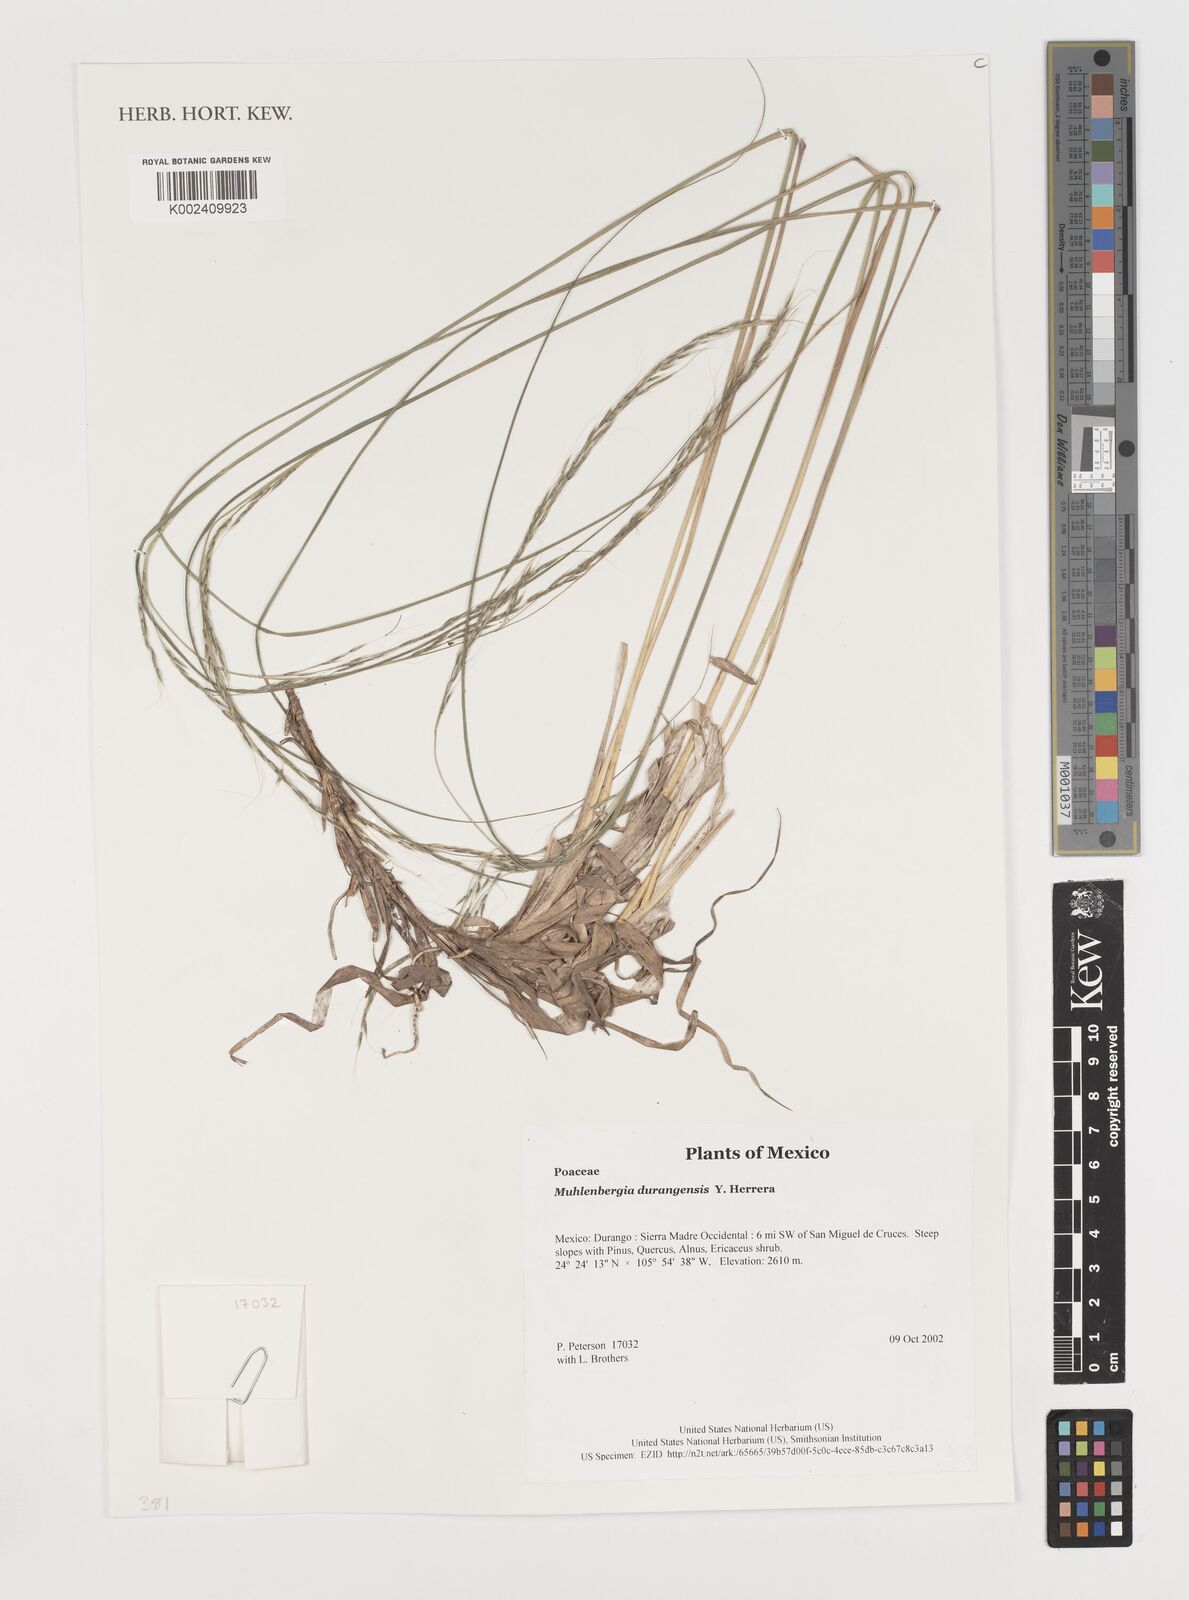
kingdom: Plantae
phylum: Tracheophyta
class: Liliopsida
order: Poales
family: Poaceae
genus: Muhlenbergia
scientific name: Muhlenbergia durangensis
